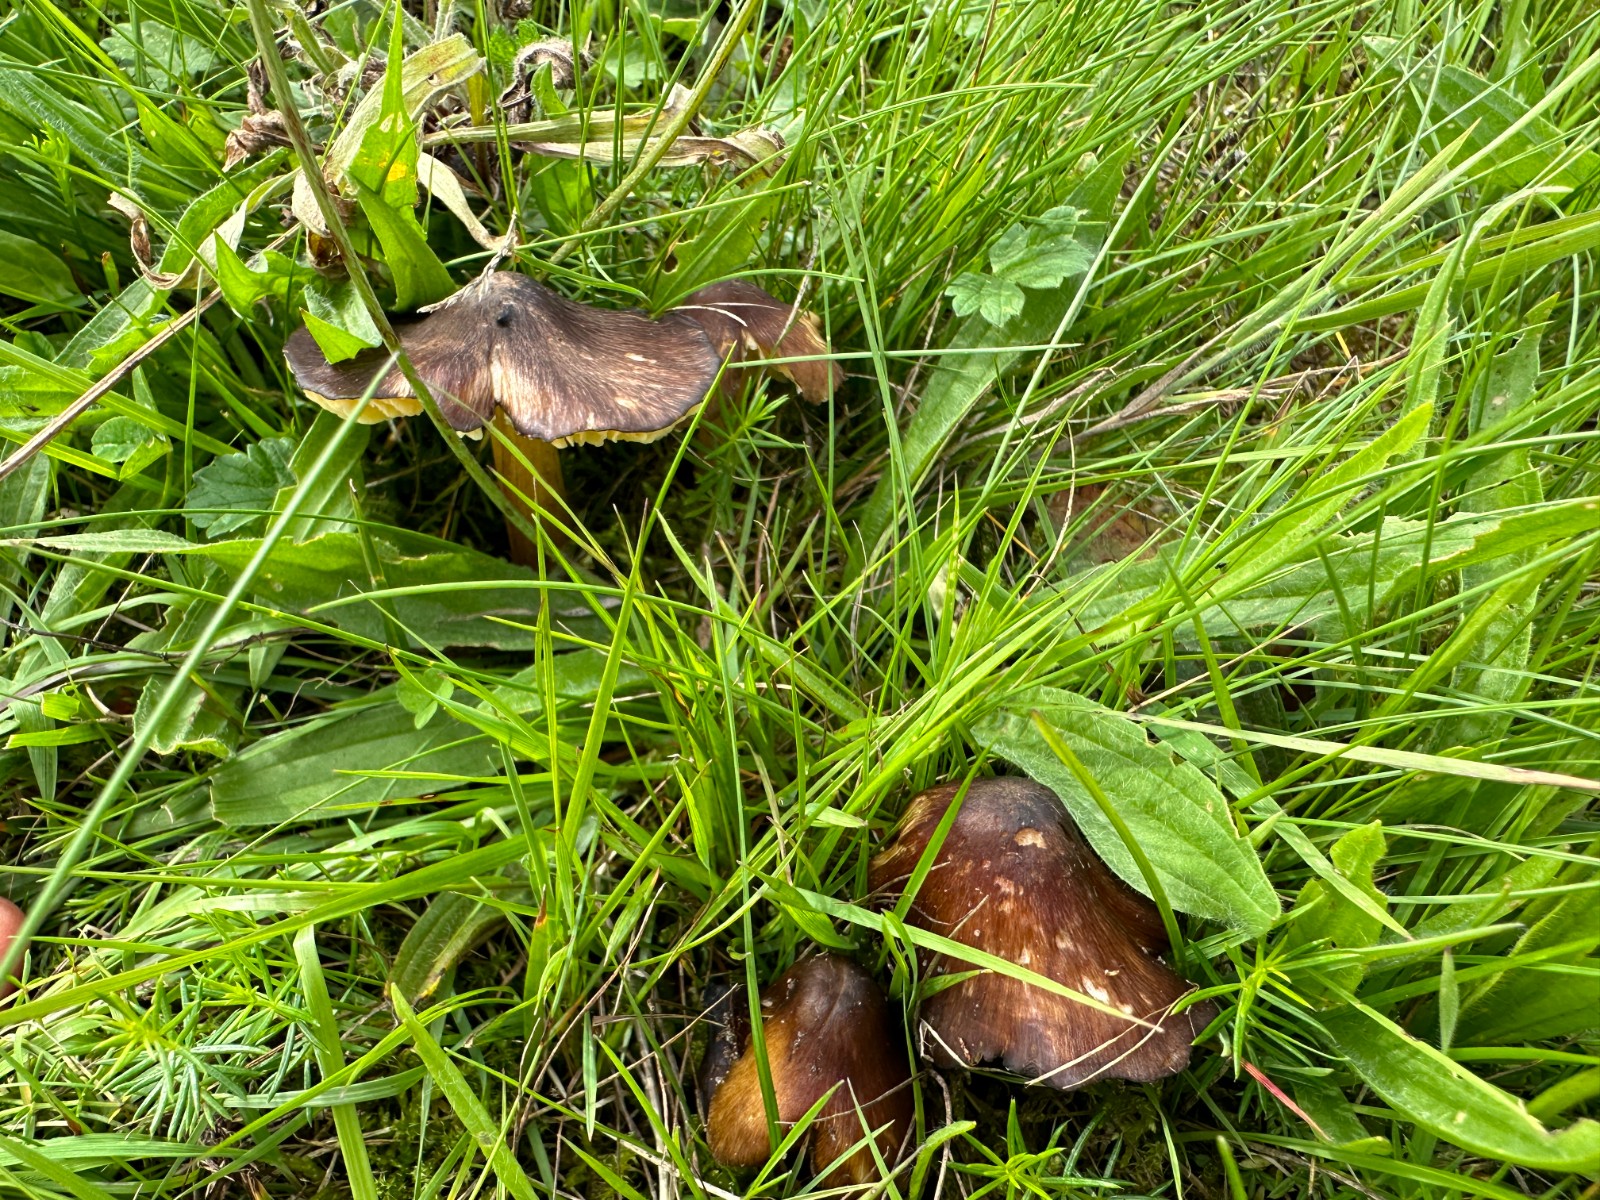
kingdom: Fungi
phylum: Basidiomycota
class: Agaricomycetes
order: Agaricales
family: Hygrophoraceae
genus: Hygrocybe
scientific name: Hygrocybe spadicea
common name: daddelbrun vokshat
